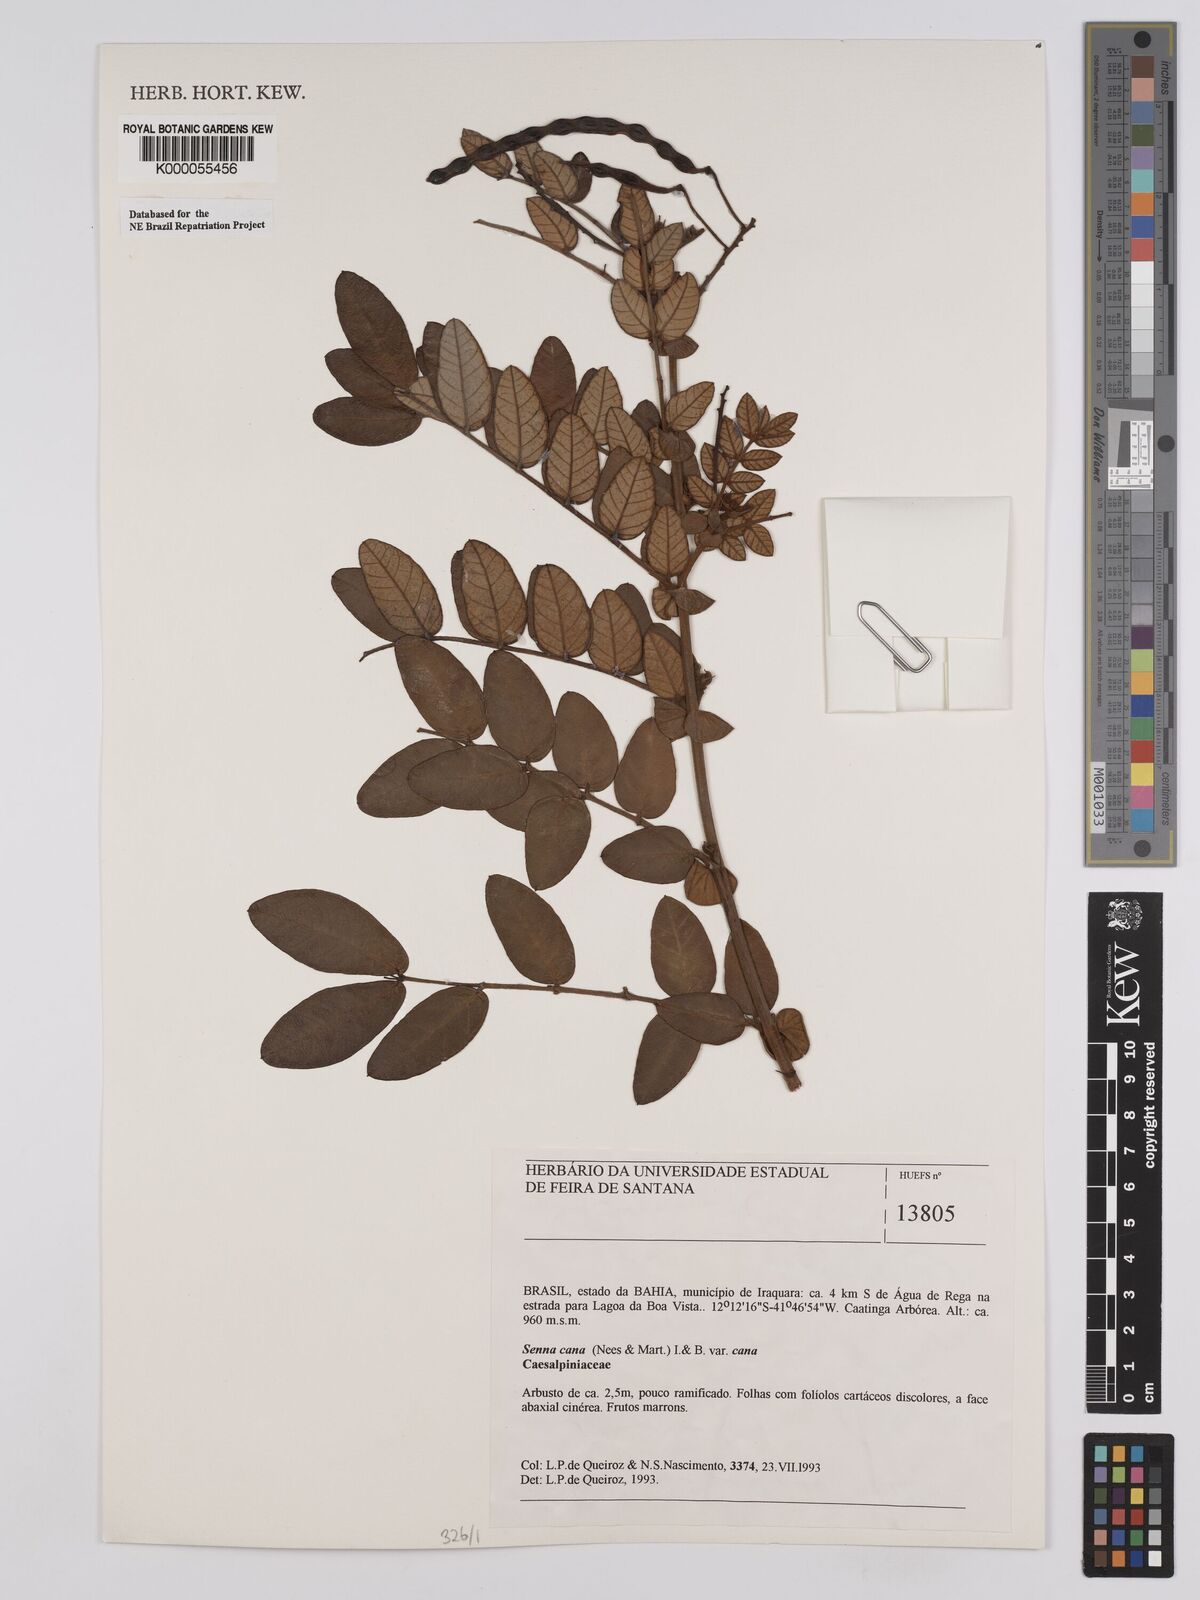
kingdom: Plantae
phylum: Tracheophyta
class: Magnoliopsida
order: Fabales
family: Fabaceae
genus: Senna
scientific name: Senna cana
